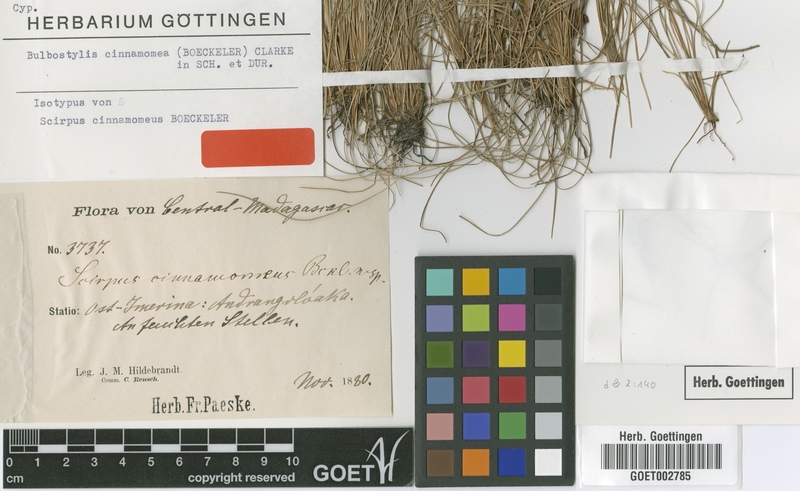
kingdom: Plantae
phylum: Tracheophyta
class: Liliopsida
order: Poales
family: Cyperaceae
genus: Bulbostylis
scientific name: Bulbostylis schoenoides
